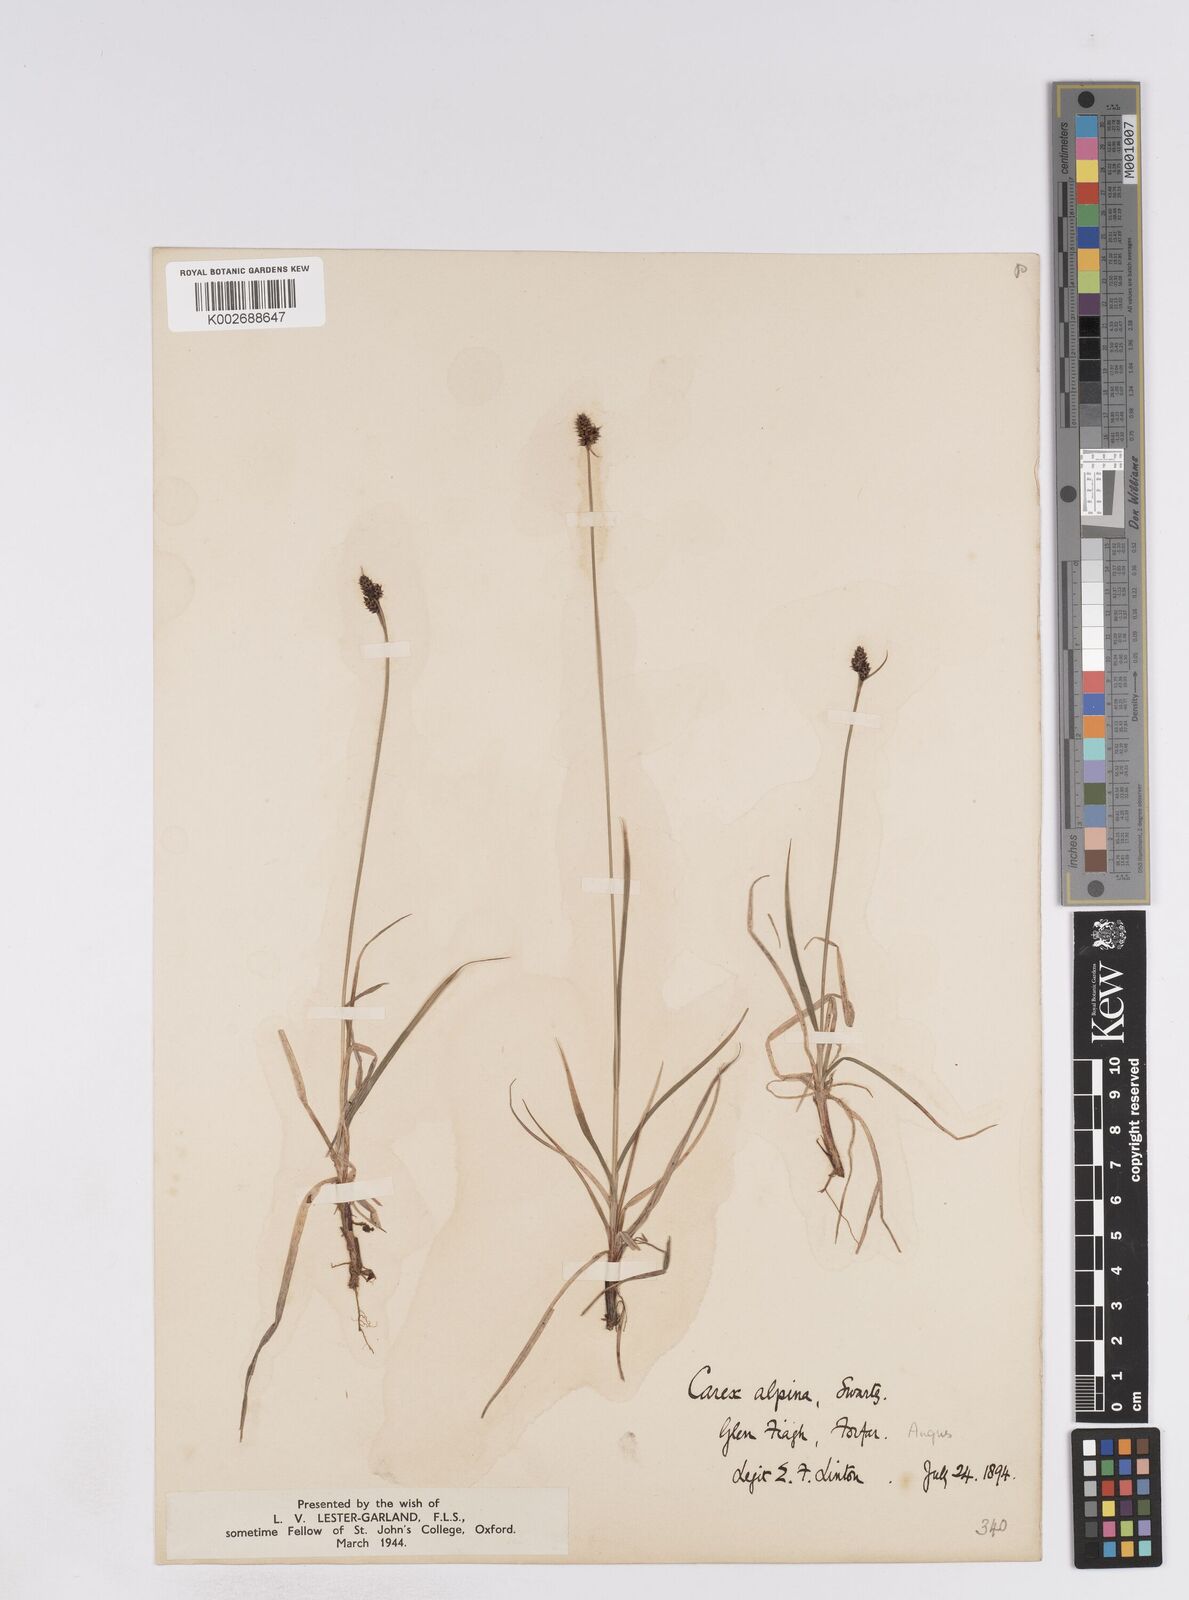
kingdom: Plantae
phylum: Tracheophyta
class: Liliopsida
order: Poales
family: Cyperaceae
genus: Carex
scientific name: Carex norvegica
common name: Close-headed alpine-sedge
